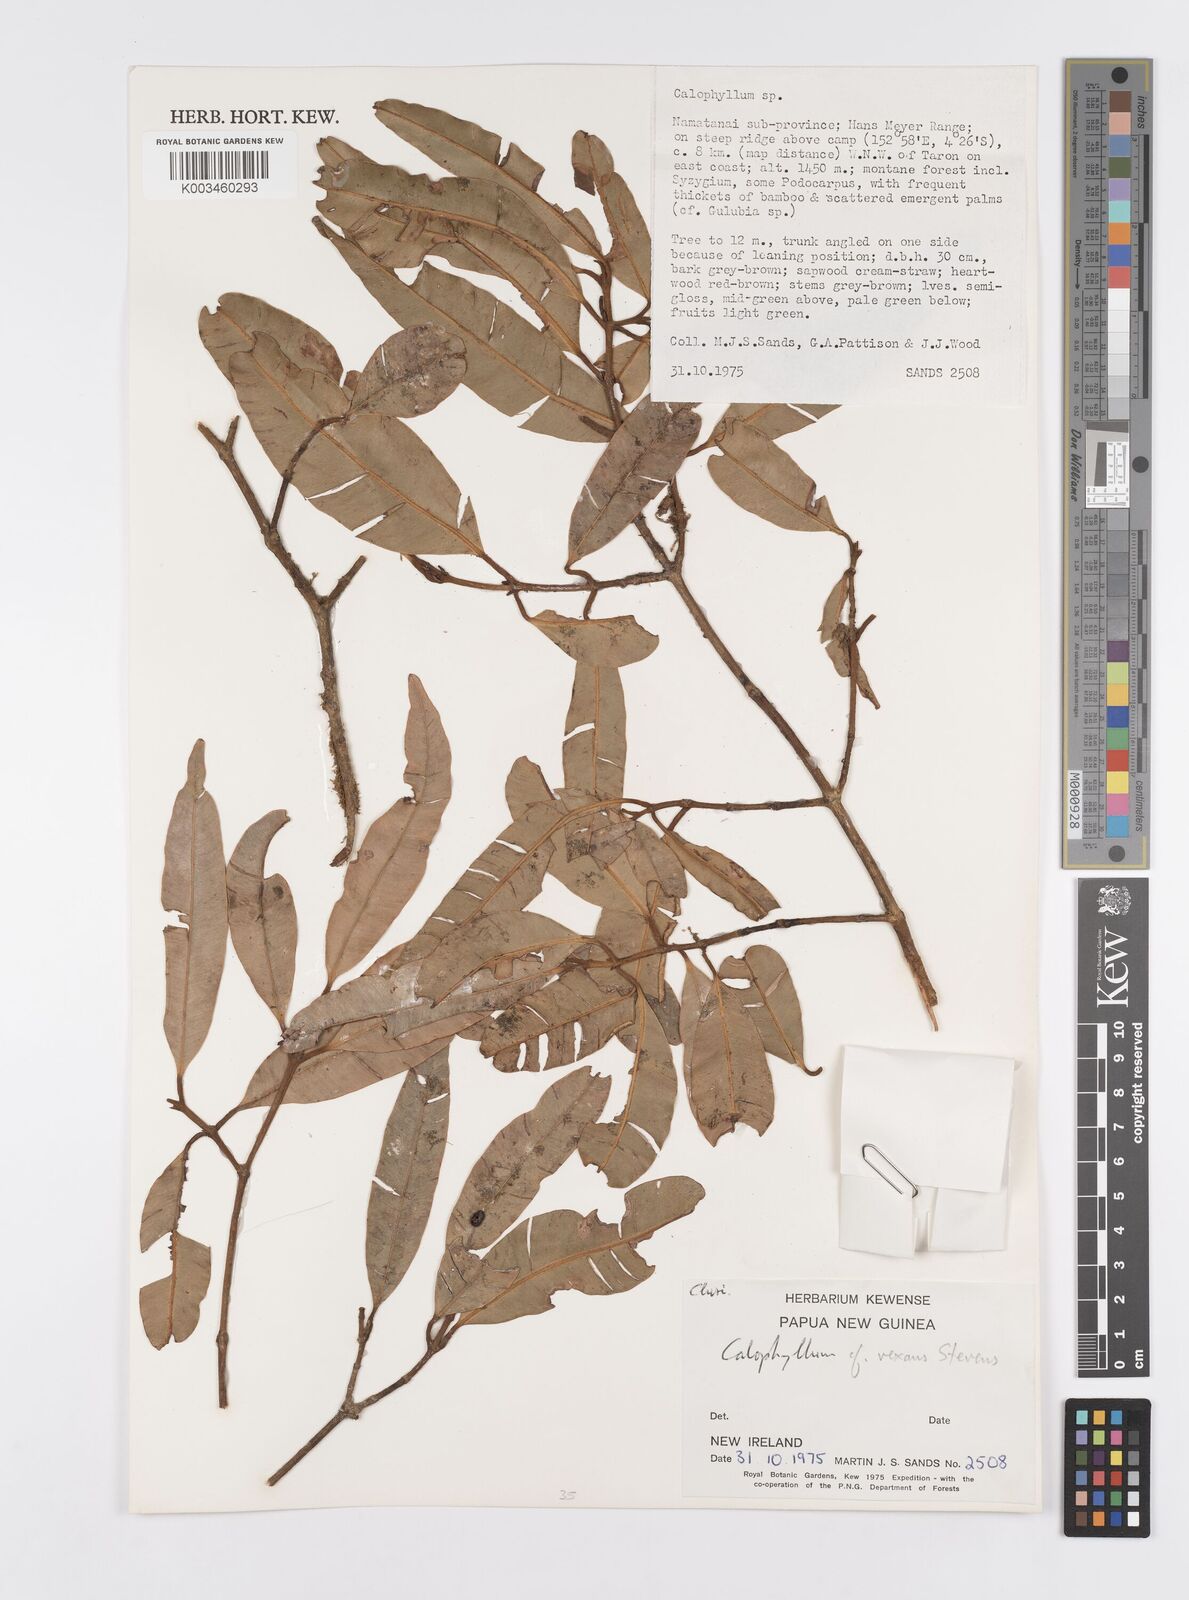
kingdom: Plantae
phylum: Tracheophyta
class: Magnoliopsida
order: Malpighiales
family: Calophyllaceae
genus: Calophyllum
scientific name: Calophyllum vexans
